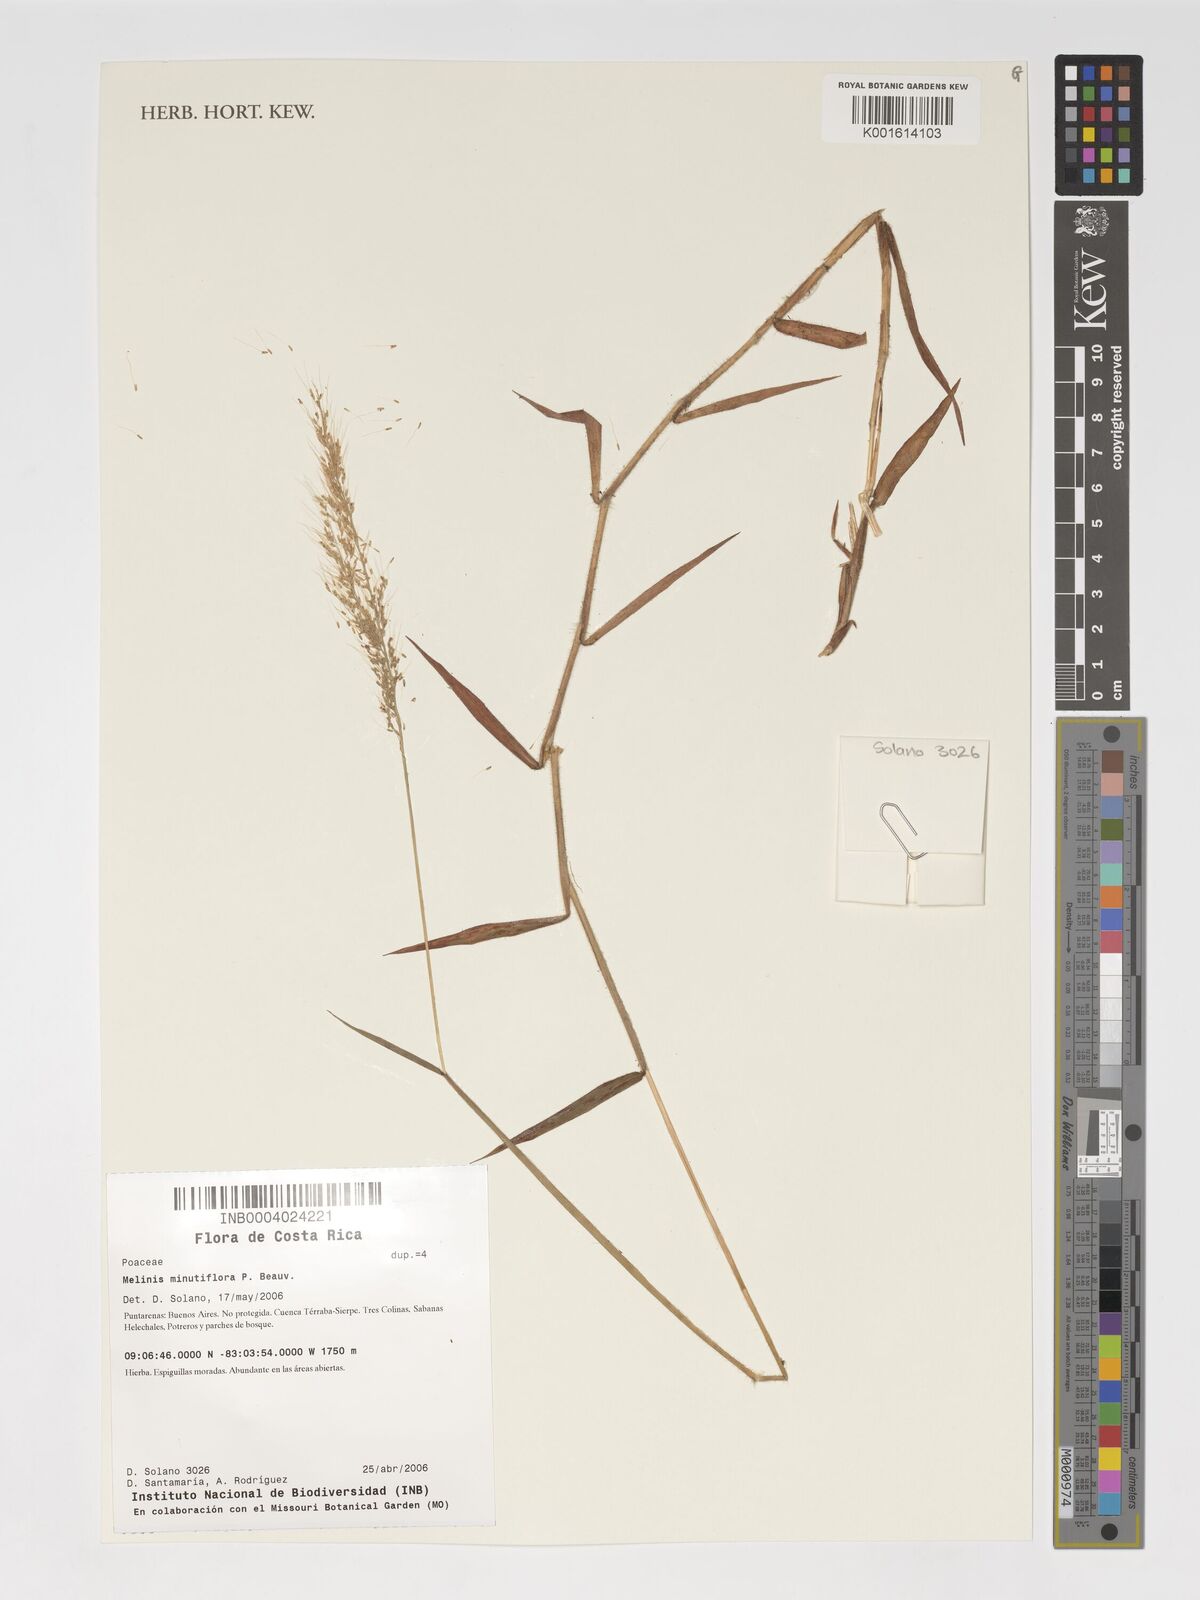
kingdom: Plantae
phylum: Tracheophyta
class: Liliopsida
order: Poales
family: Poaceae
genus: Melinis
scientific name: Melinis minutiflora
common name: Molassesgrass
